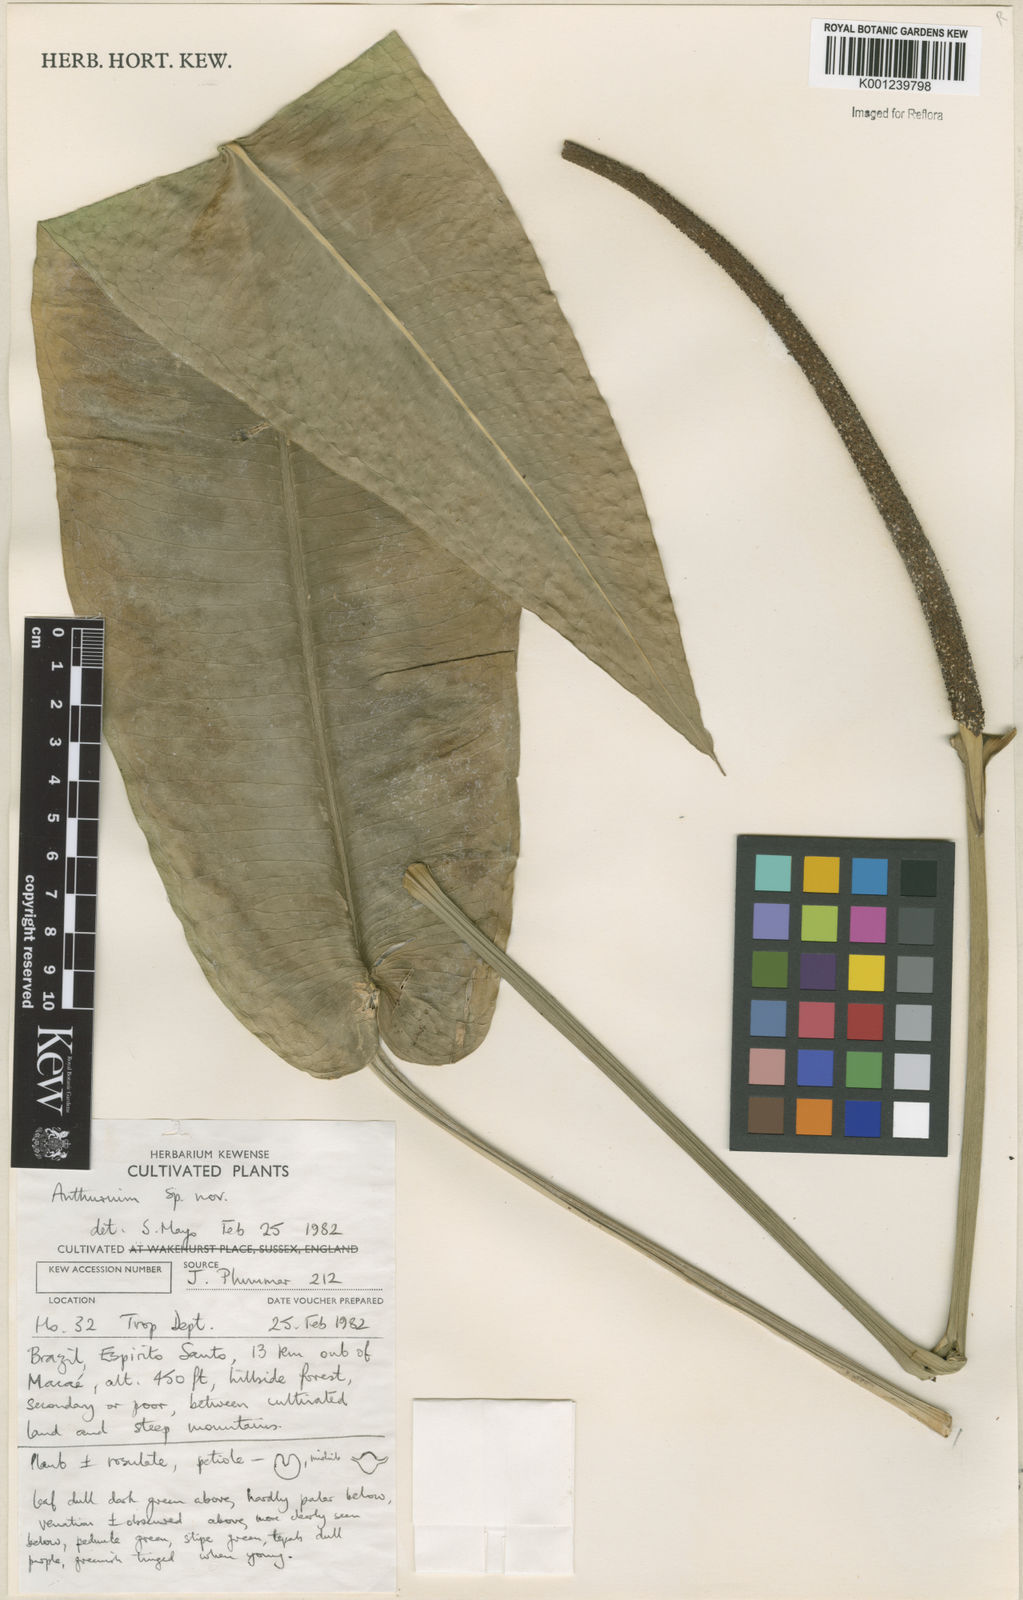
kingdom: Plantae
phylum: Tracheophyta
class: Liliopsida
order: Alismatales
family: Araceae
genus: Anthurium
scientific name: Anthurium
